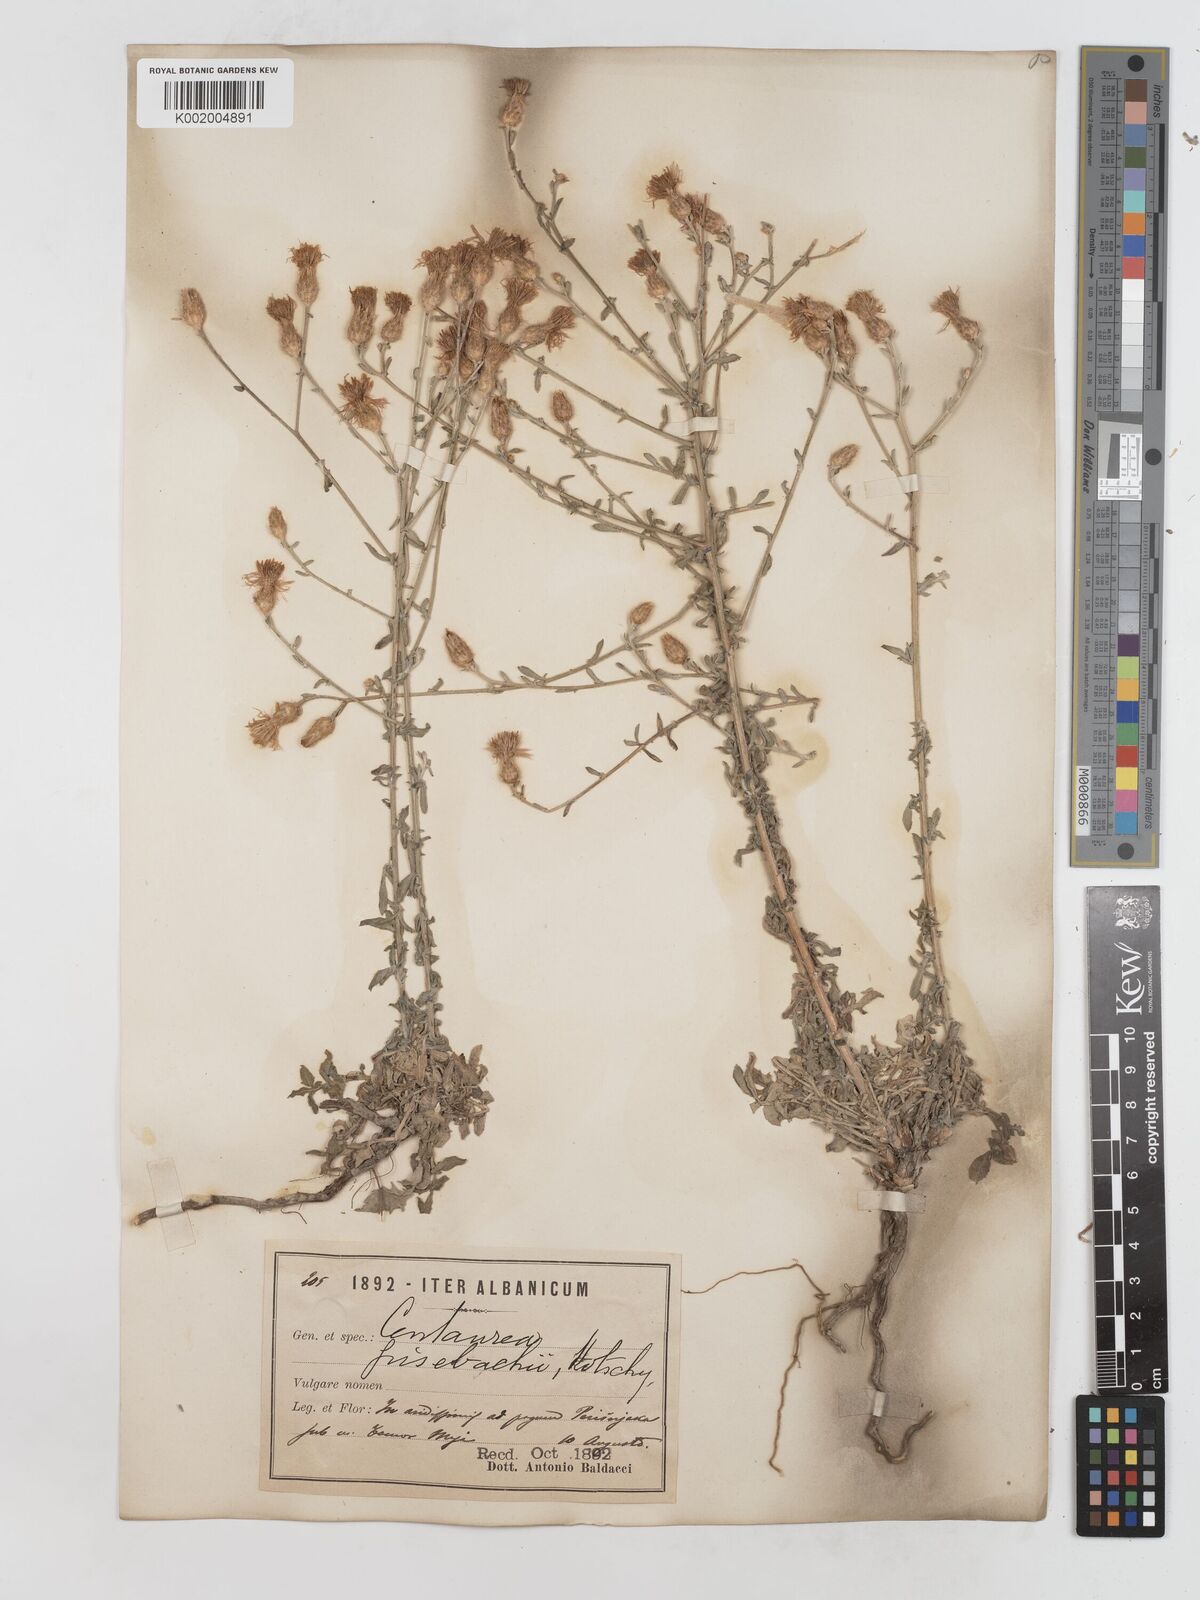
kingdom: Plantae
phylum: Tracheophyta
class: Magnoliopsida
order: Asterales
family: Asteraceae
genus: Centaurea
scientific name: Centaurea grisebachii
